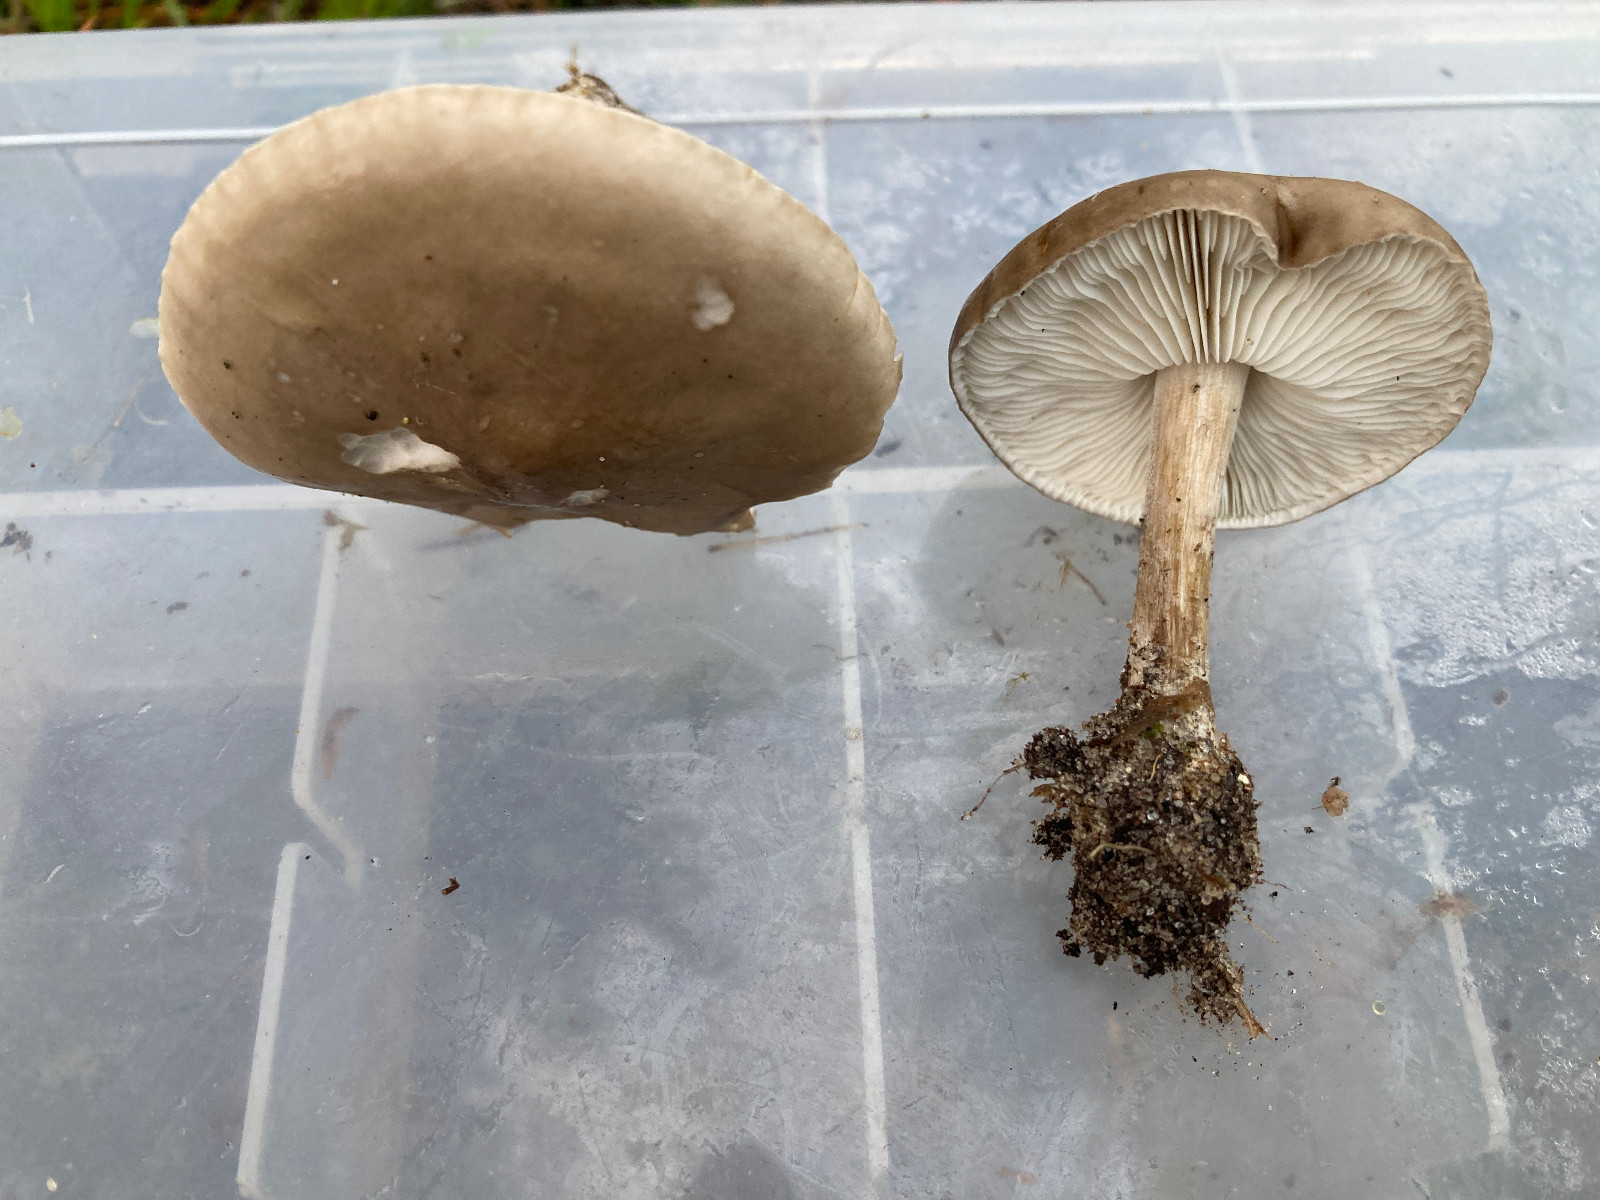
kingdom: Fungi
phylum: Basidiomycota
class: Agaricomycetes
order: Agaricales
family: Tricholomataceae
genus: Melanoleuca
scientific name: Melanoleuca bataillei
